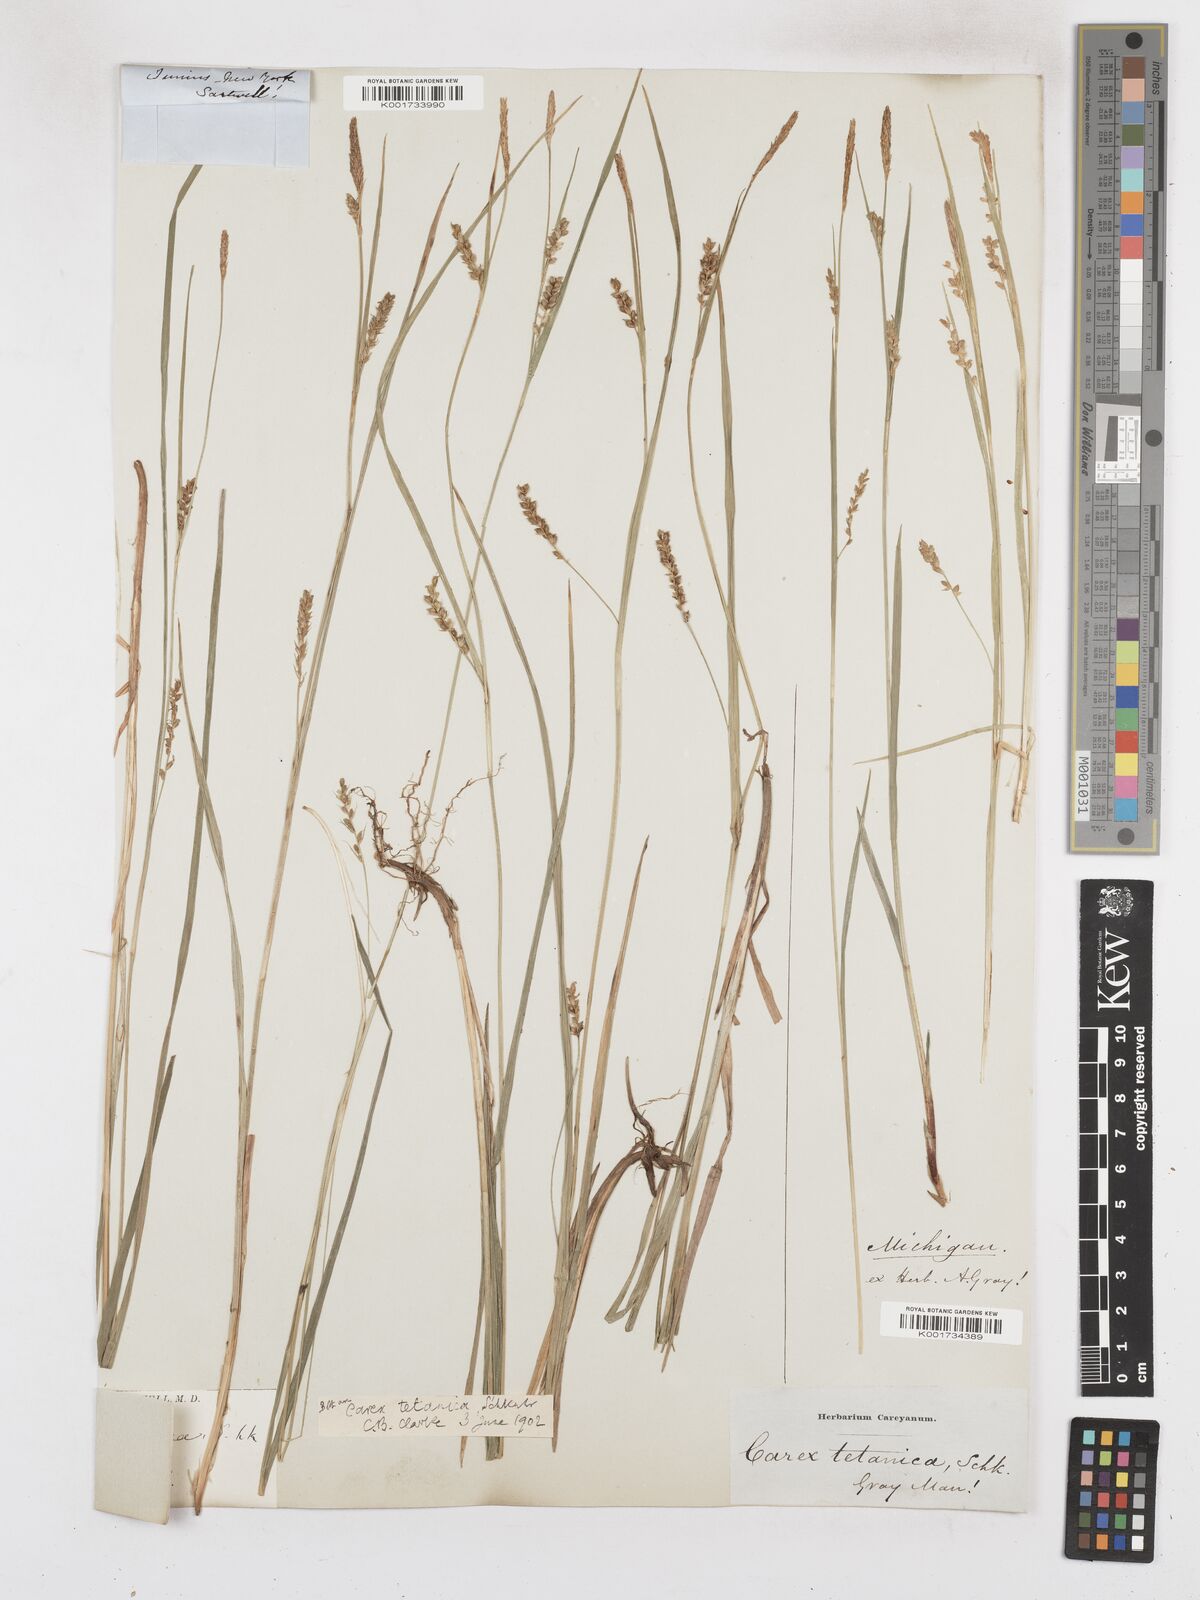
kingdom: Plantae
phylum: Tracheophyta
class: Liliopsida
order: Poales
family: Cyperaceae
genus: Carex
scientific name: Carex tetanica
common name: Rigid sedge
